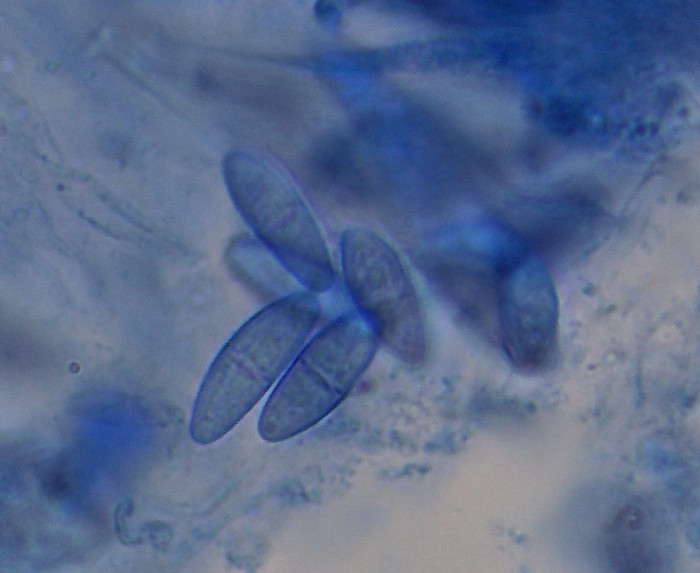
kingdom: Fungi
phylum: Ascomycota
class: Sordariomycetes
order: Hypocreales
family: Bionectriaceae
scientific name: Bionectriaceae
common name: gyldenkernefamilien
